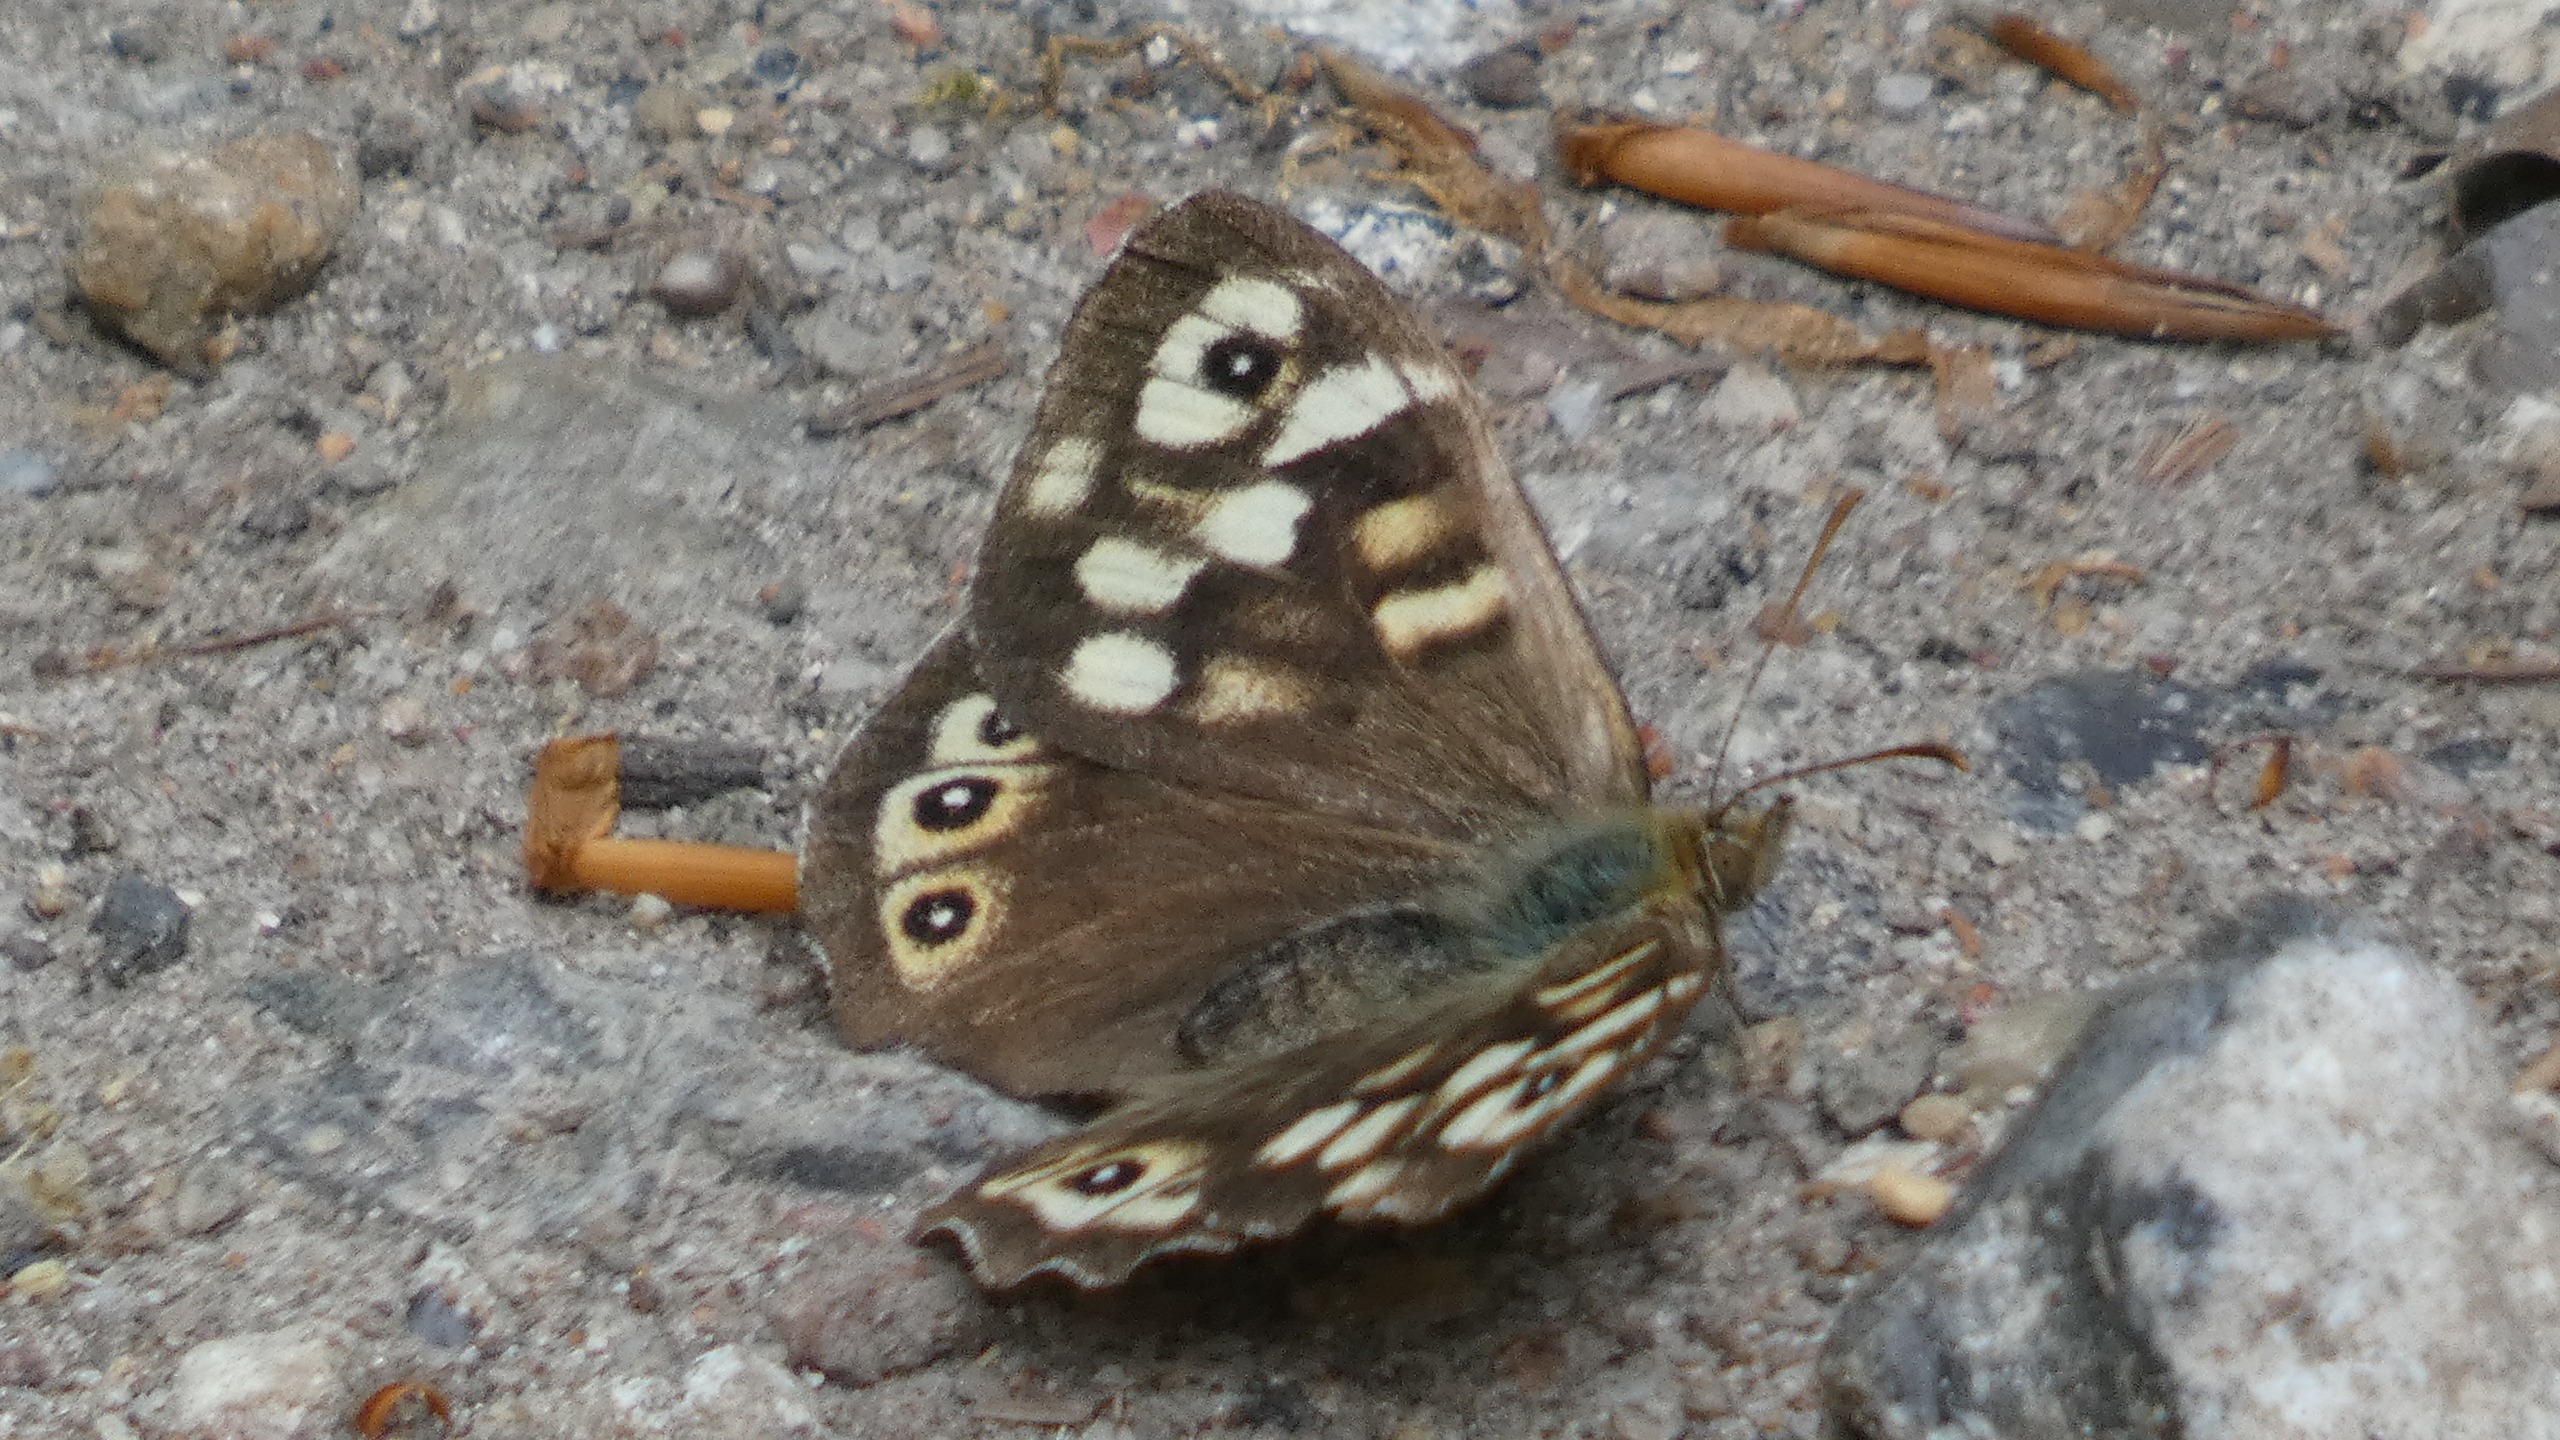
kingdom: Animalia
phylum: Arthropoda
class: Insecta
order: Lepidoptera
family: Nymphalidae
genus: Pararge
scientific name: Pararge aegeria
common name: Skovrandøje
